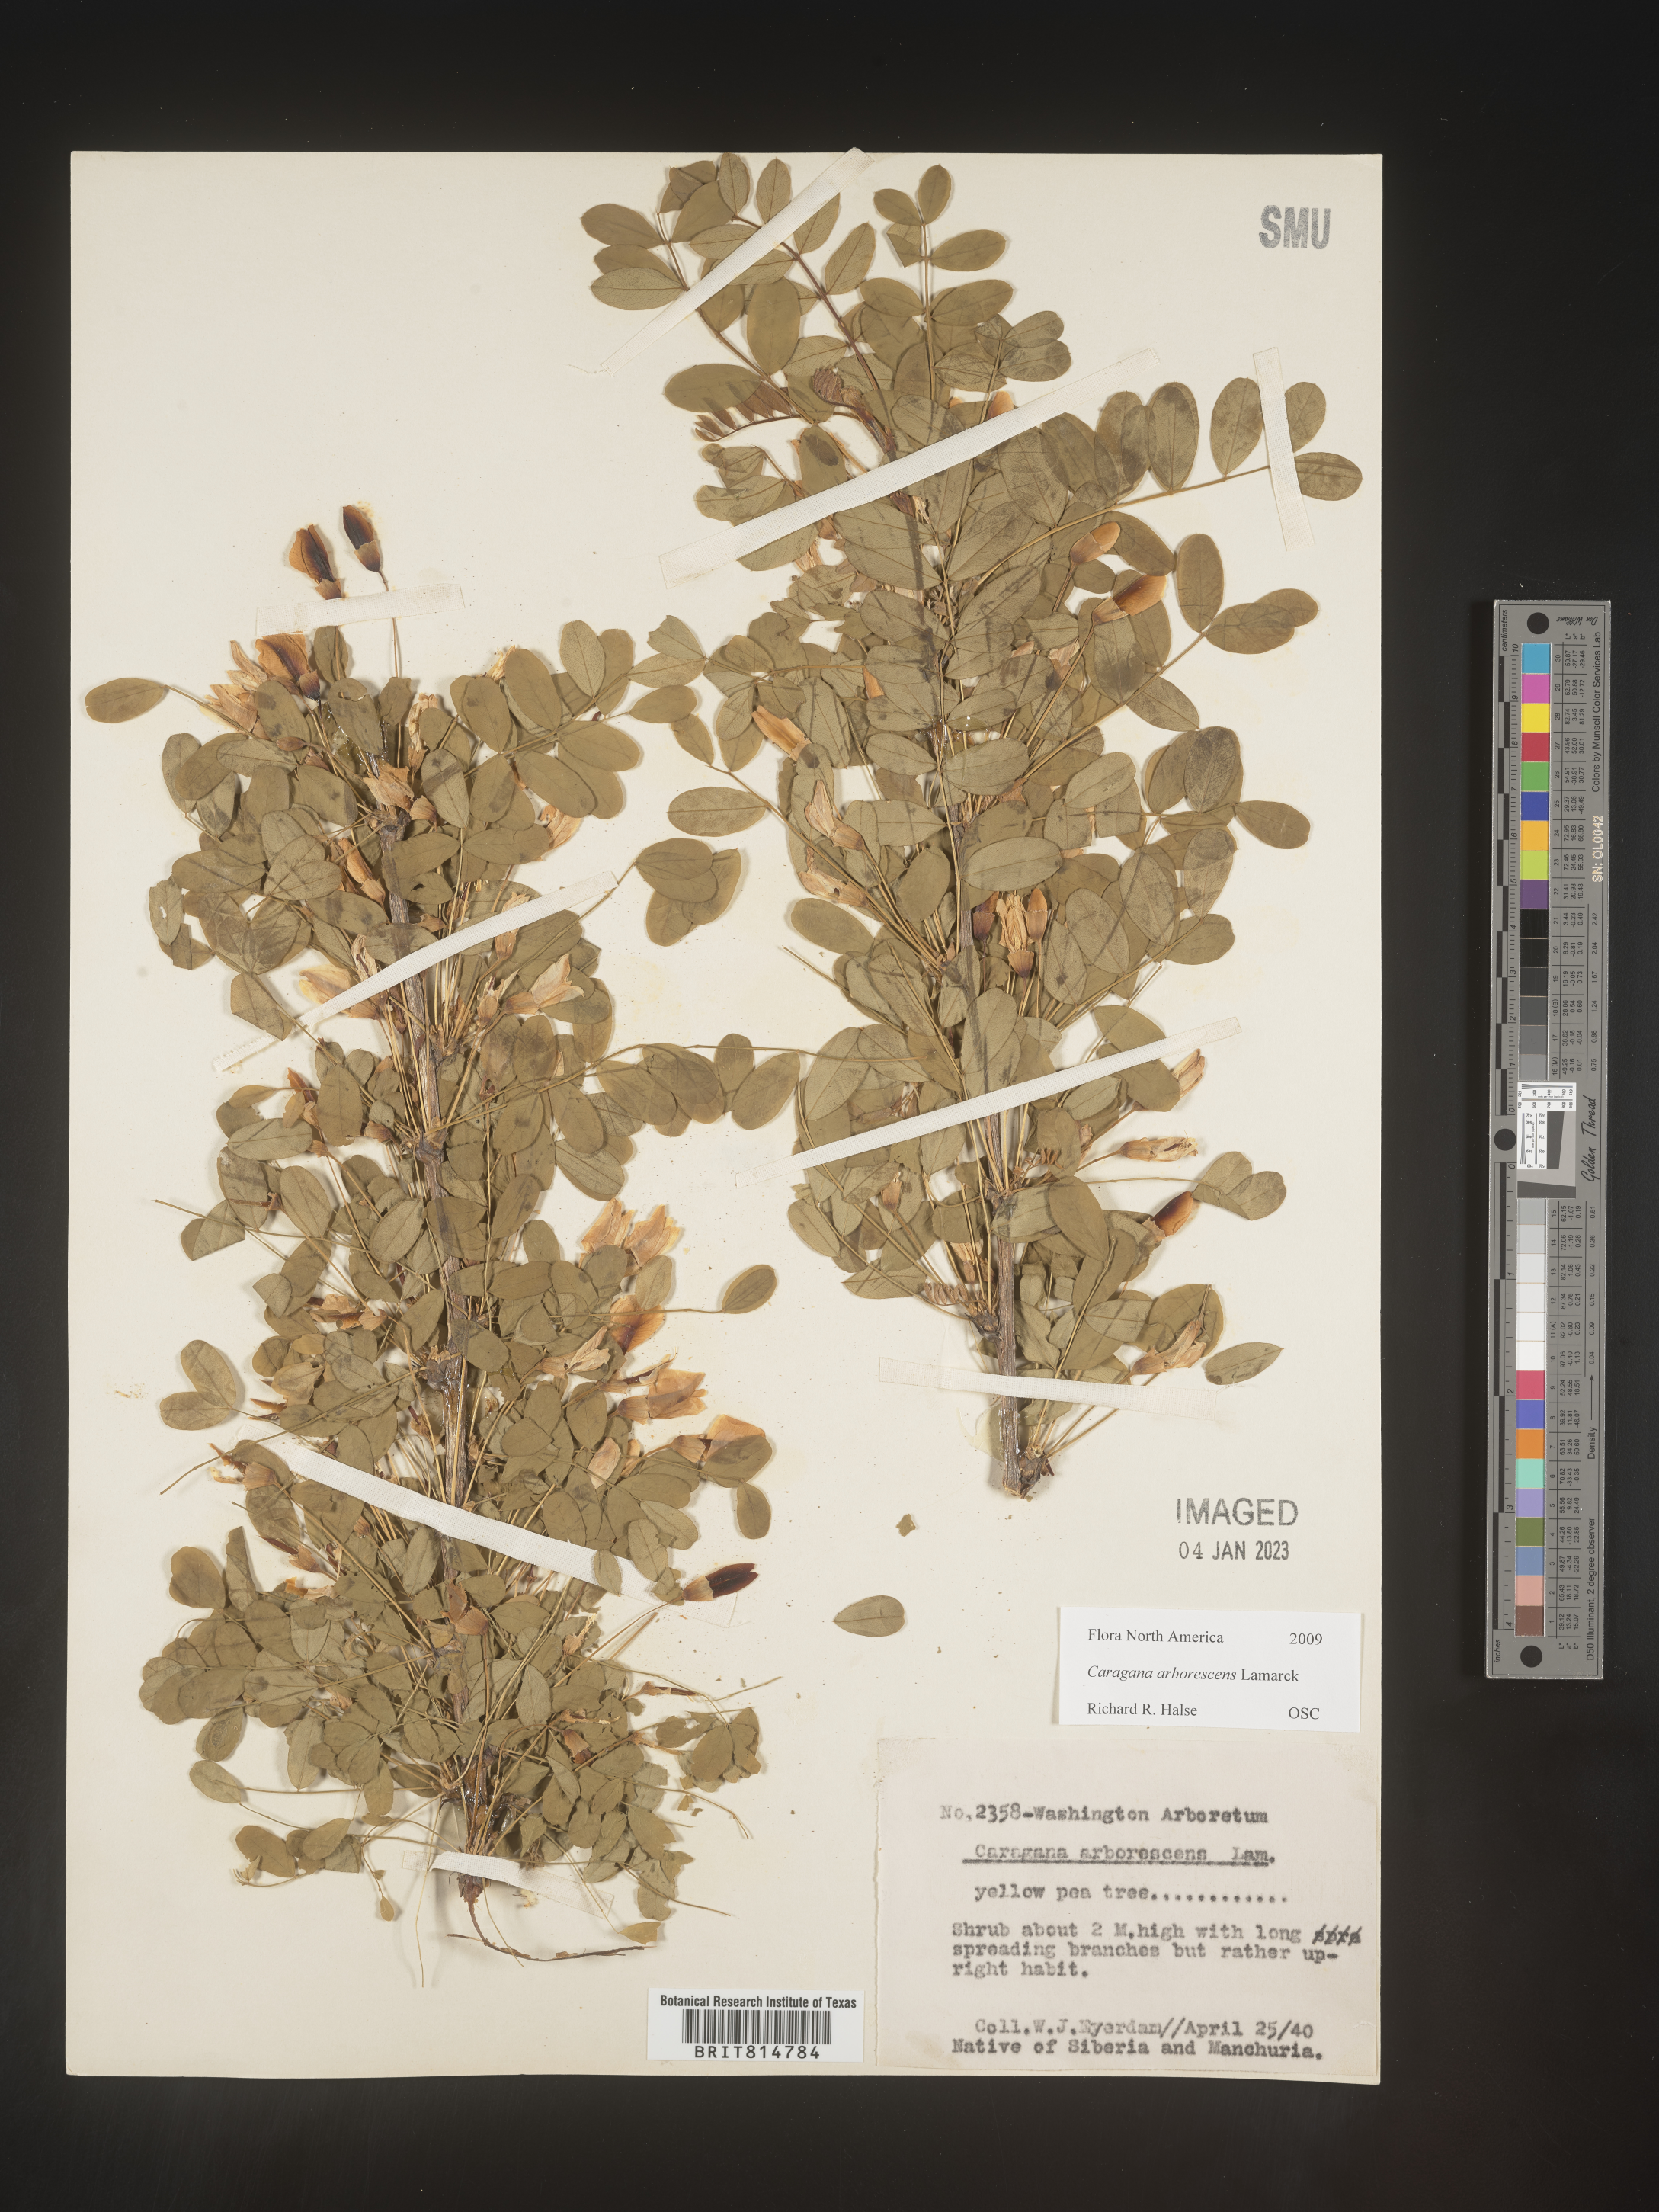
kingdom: Plantae
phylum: Tracheophyta
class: Magnoliopsida
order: Fabales
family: Fabaceae
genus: Caragana
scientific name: Caragana
